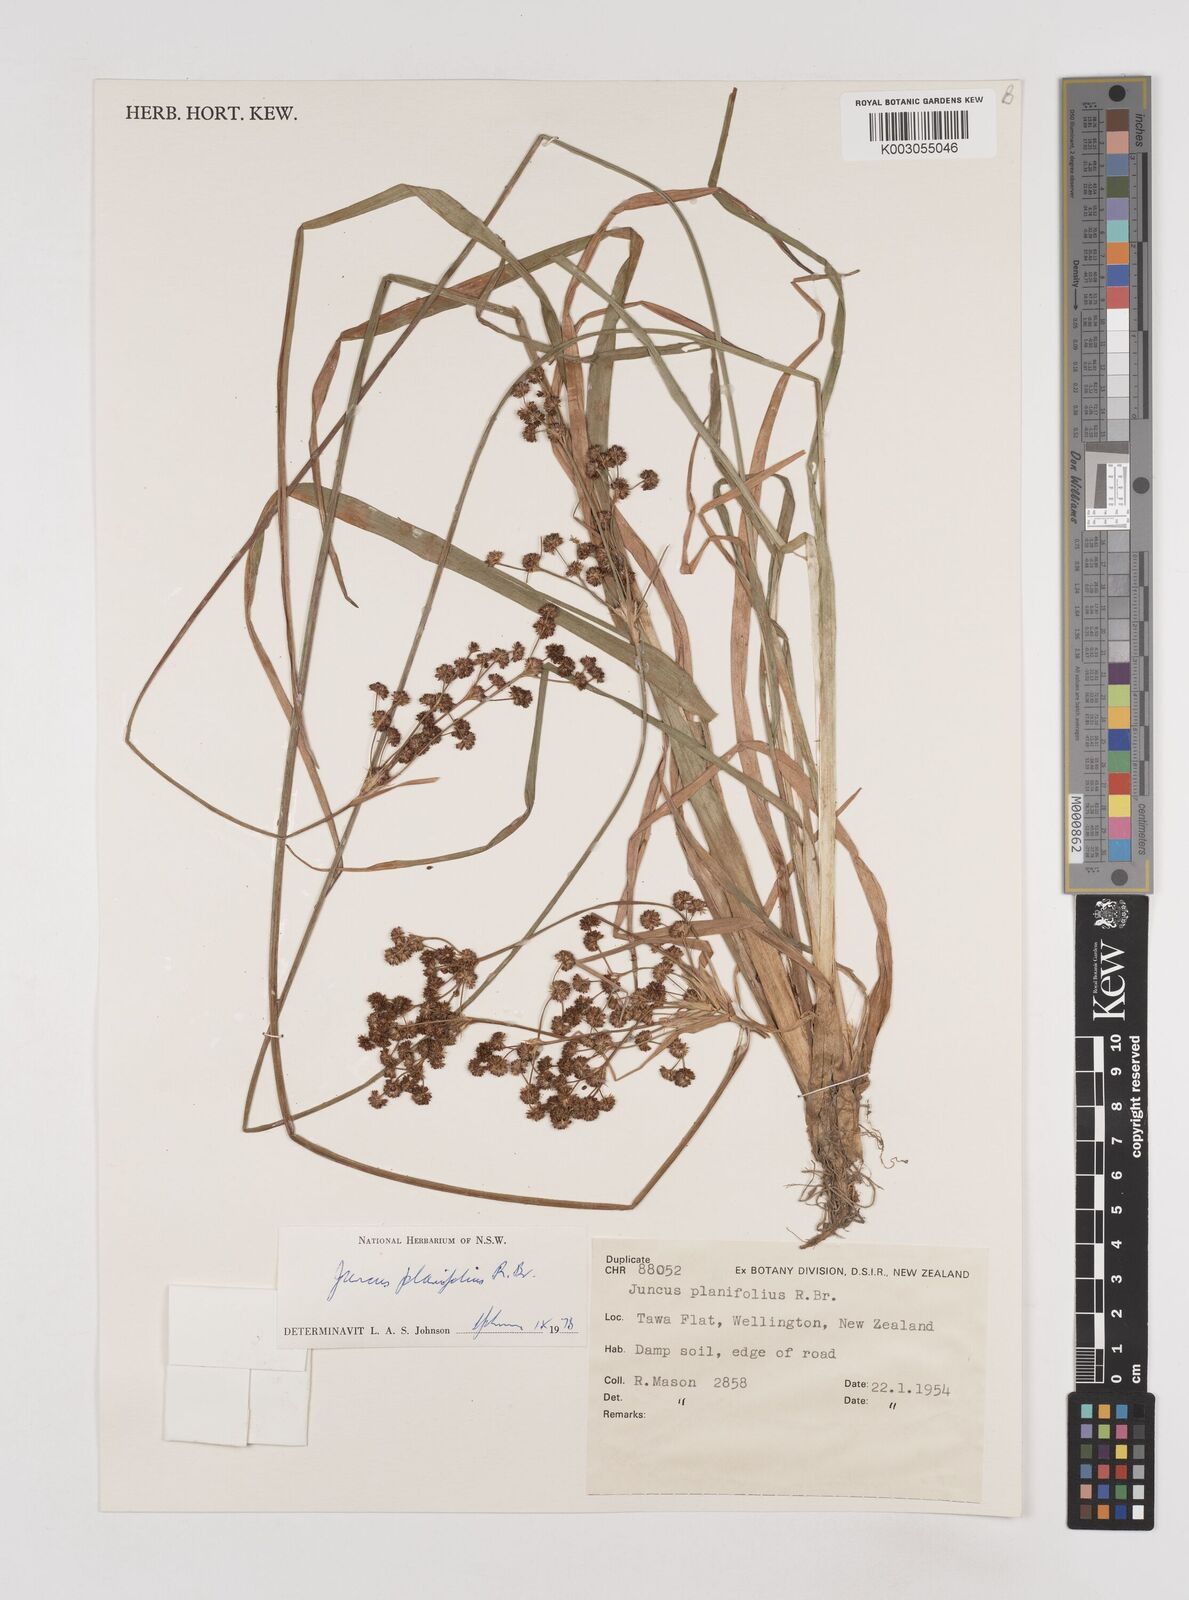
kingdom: Plantae
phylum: Tracheophyta
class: Liliopsida
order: Poales
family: Juncaceae
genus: Juncus
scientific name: Juncus planifolius
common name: Broadleaf rush
